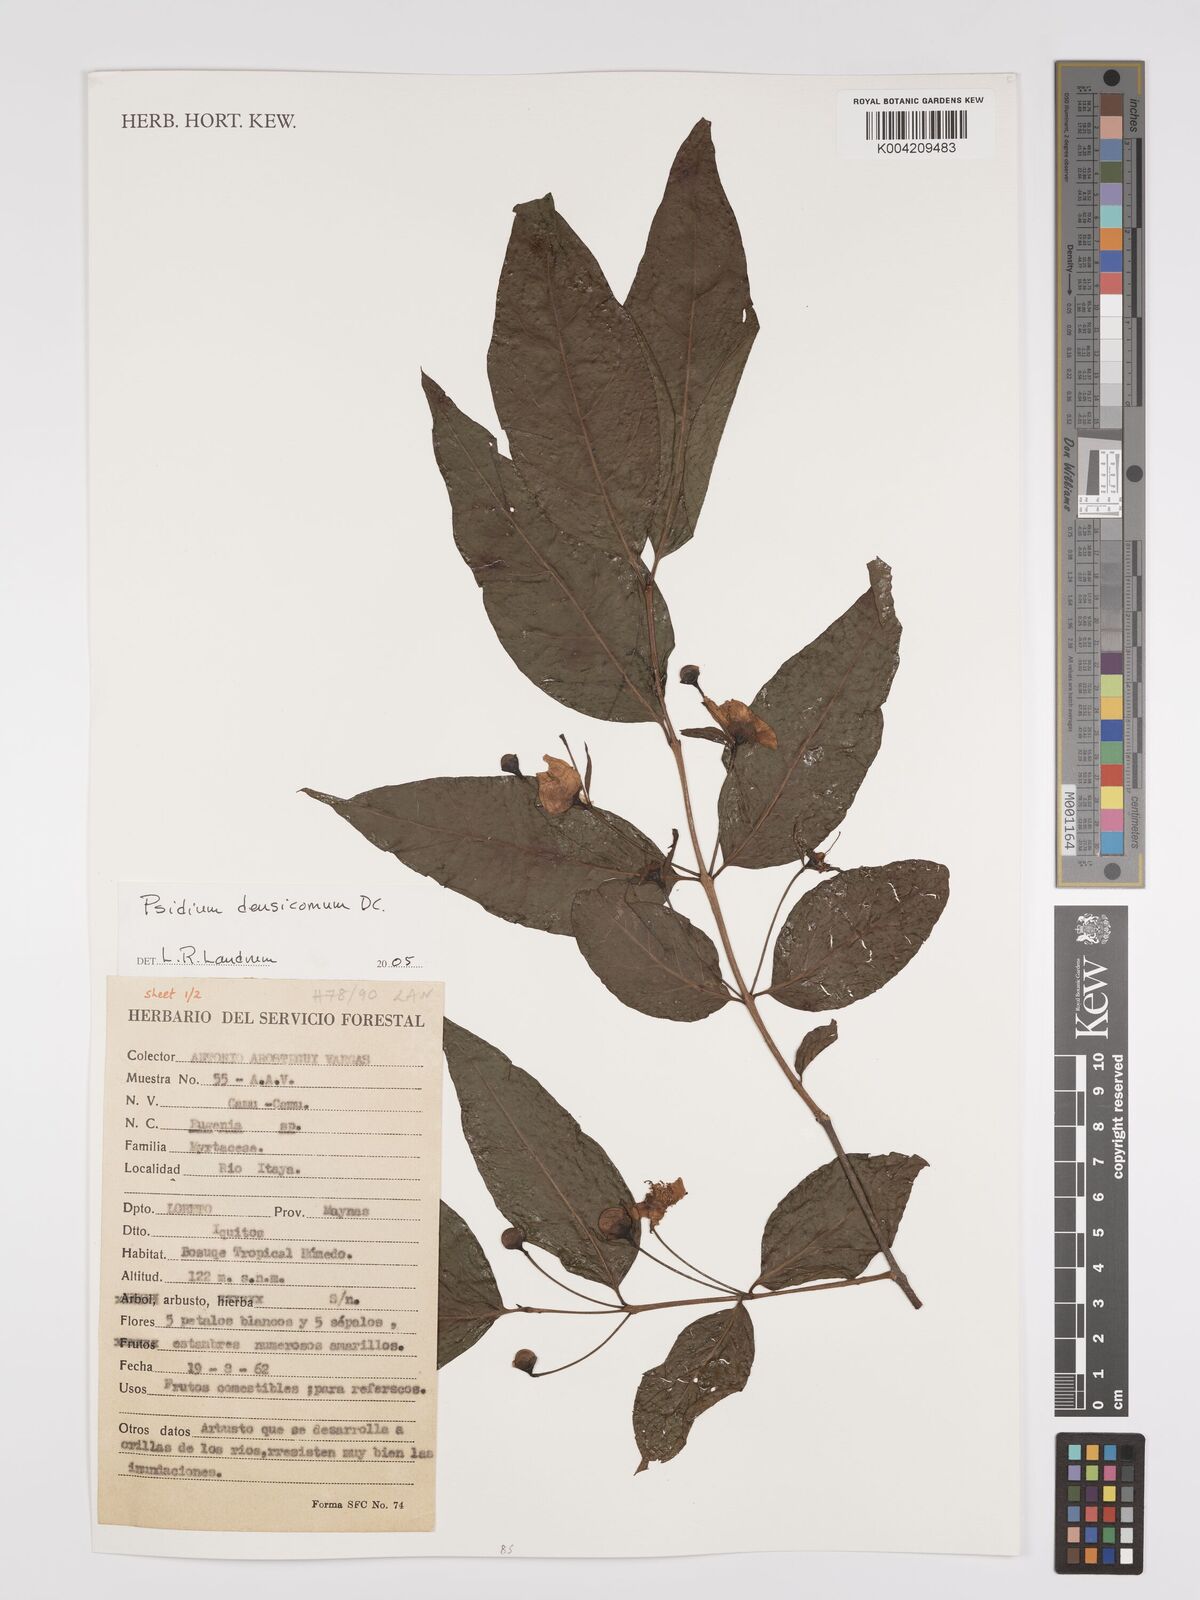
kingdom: Plantae
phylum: Tracheophyta
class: Magnoliopsida
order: Myrtales
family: Myrtaceae
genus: Psidium
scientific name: Psidium densicomum
